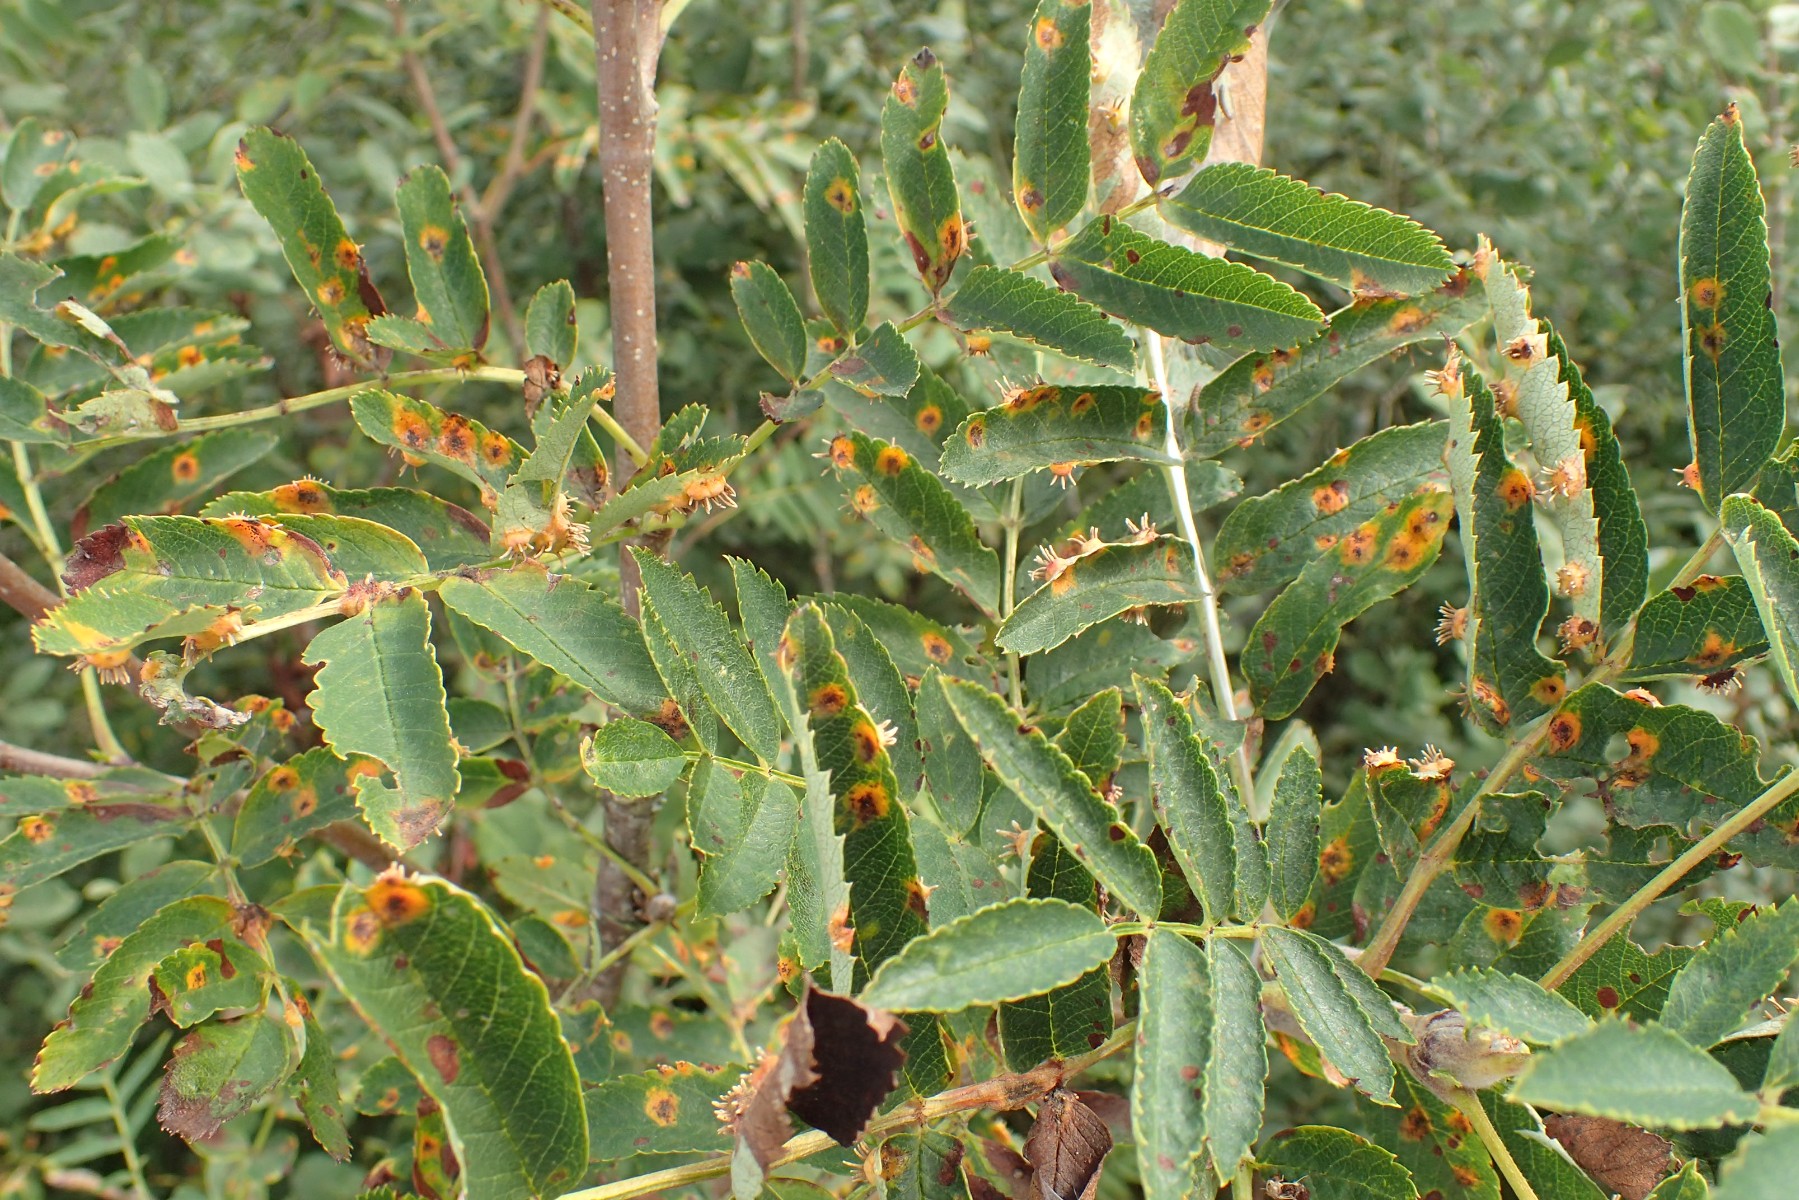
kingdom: Fungi
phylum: Basidiomycota
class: Pucciniomycetes
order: Pucciniales
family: Gymnosporangiaceae
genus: Gymnosporangium
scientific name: Gymnosporangium cornutum
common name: rønnehorn-bævrerust
